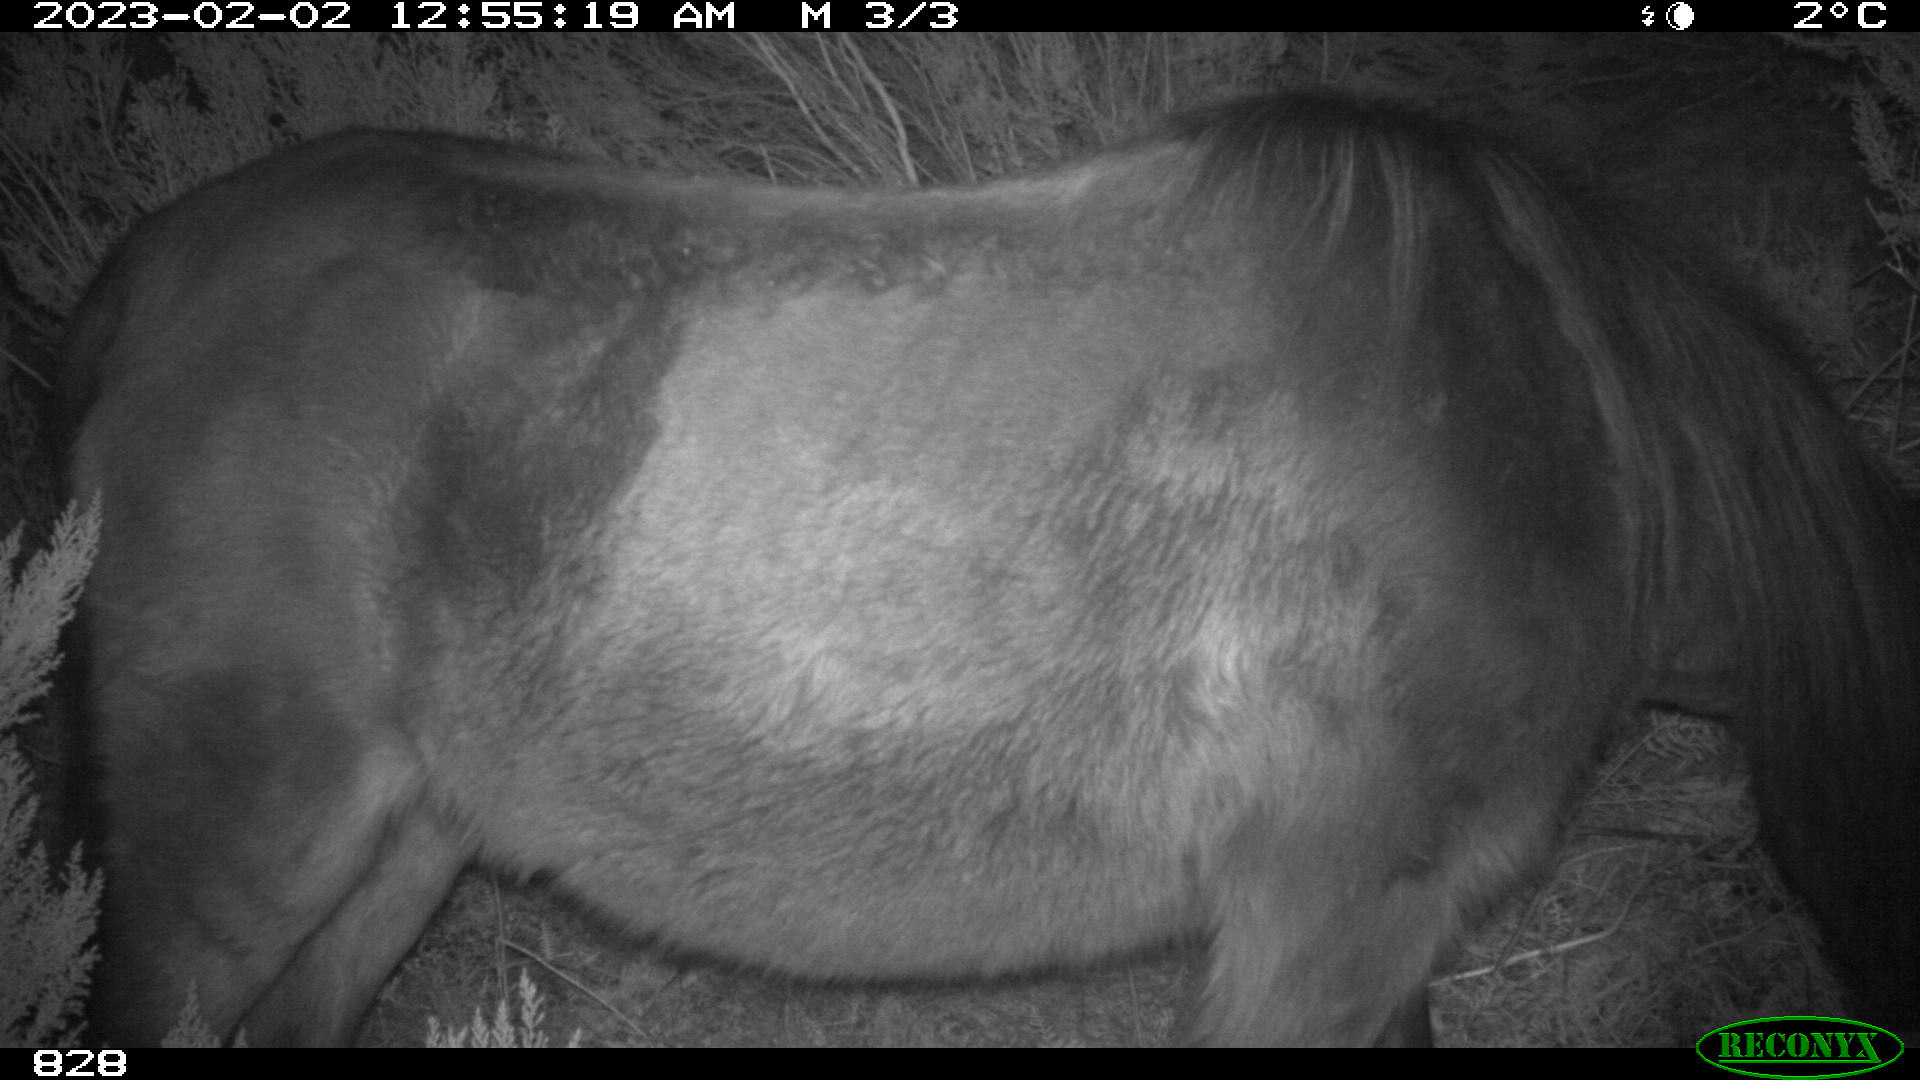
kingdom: Animalia
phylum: Chordata
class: Mammalia
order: Perissodactyla
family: Equidae
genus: Equus
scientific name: Equus caballus
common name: Horse
